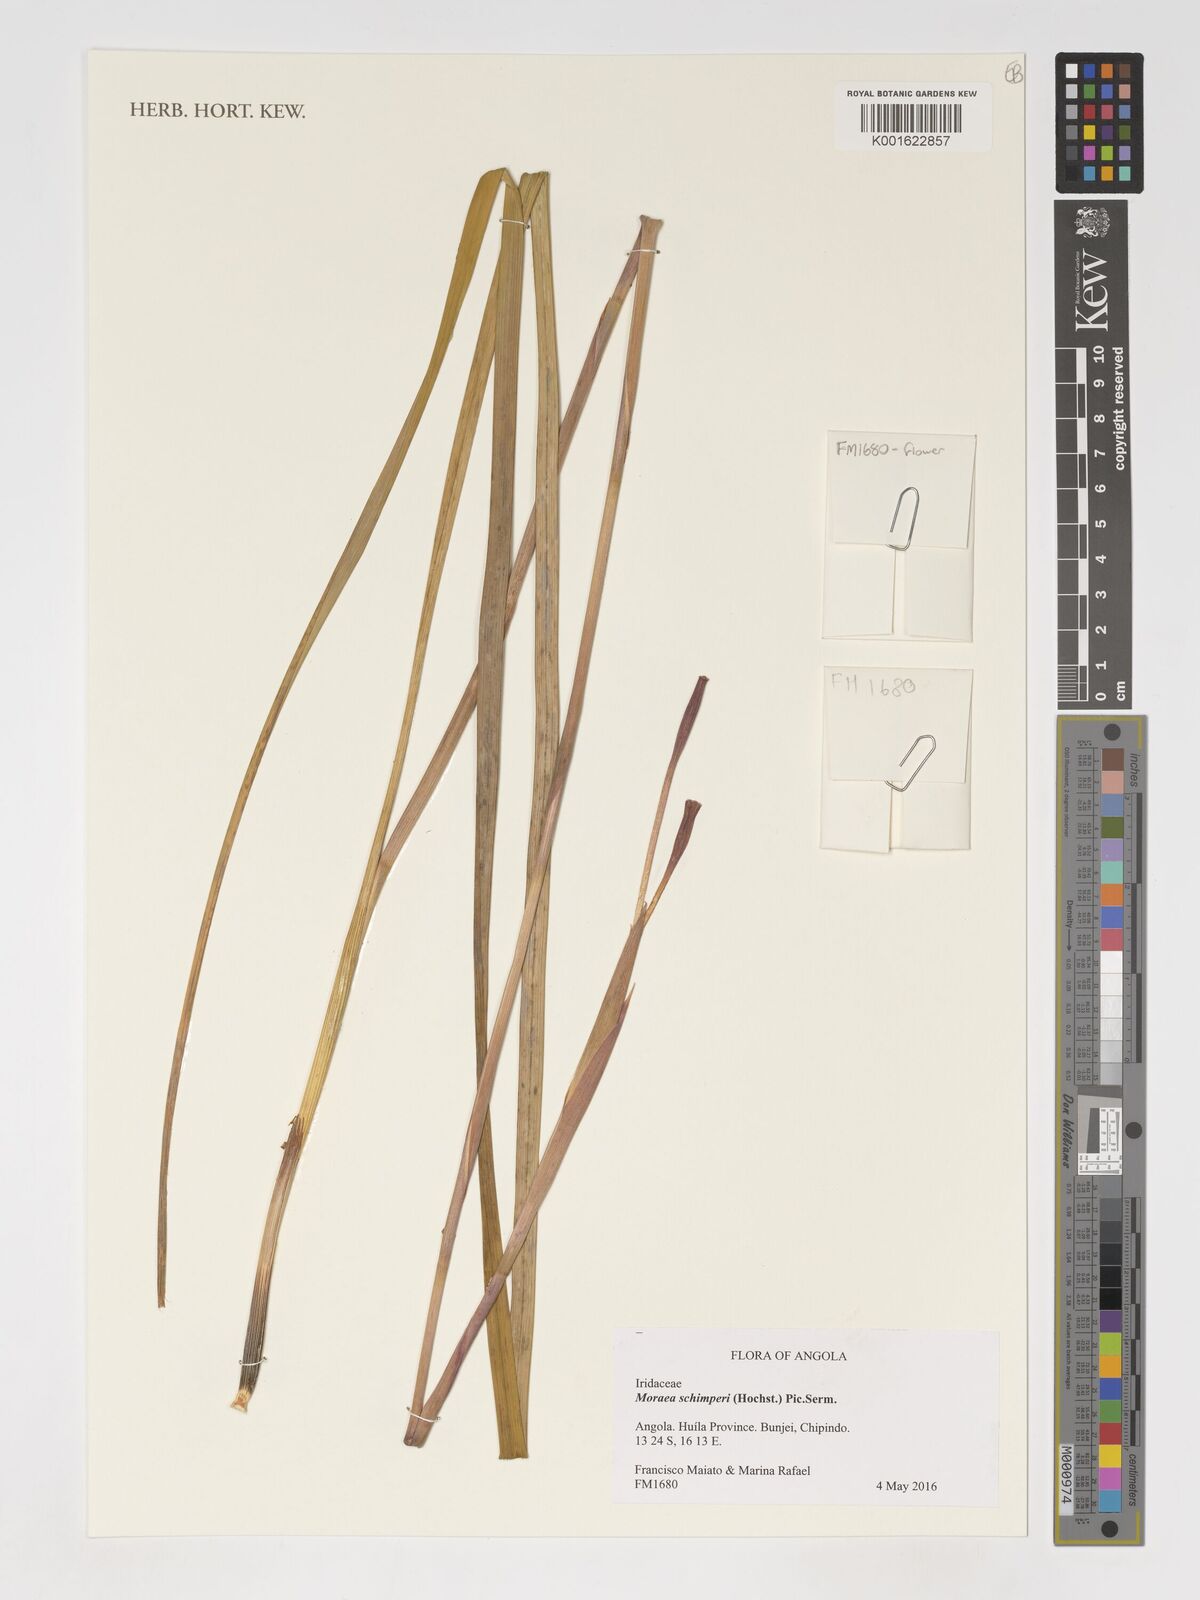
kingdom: Plantae
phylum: Tracheophyta
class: Liliopsida
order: Asparagales
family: Iridaceae
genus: Moraea
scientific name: Moraea schimperi
